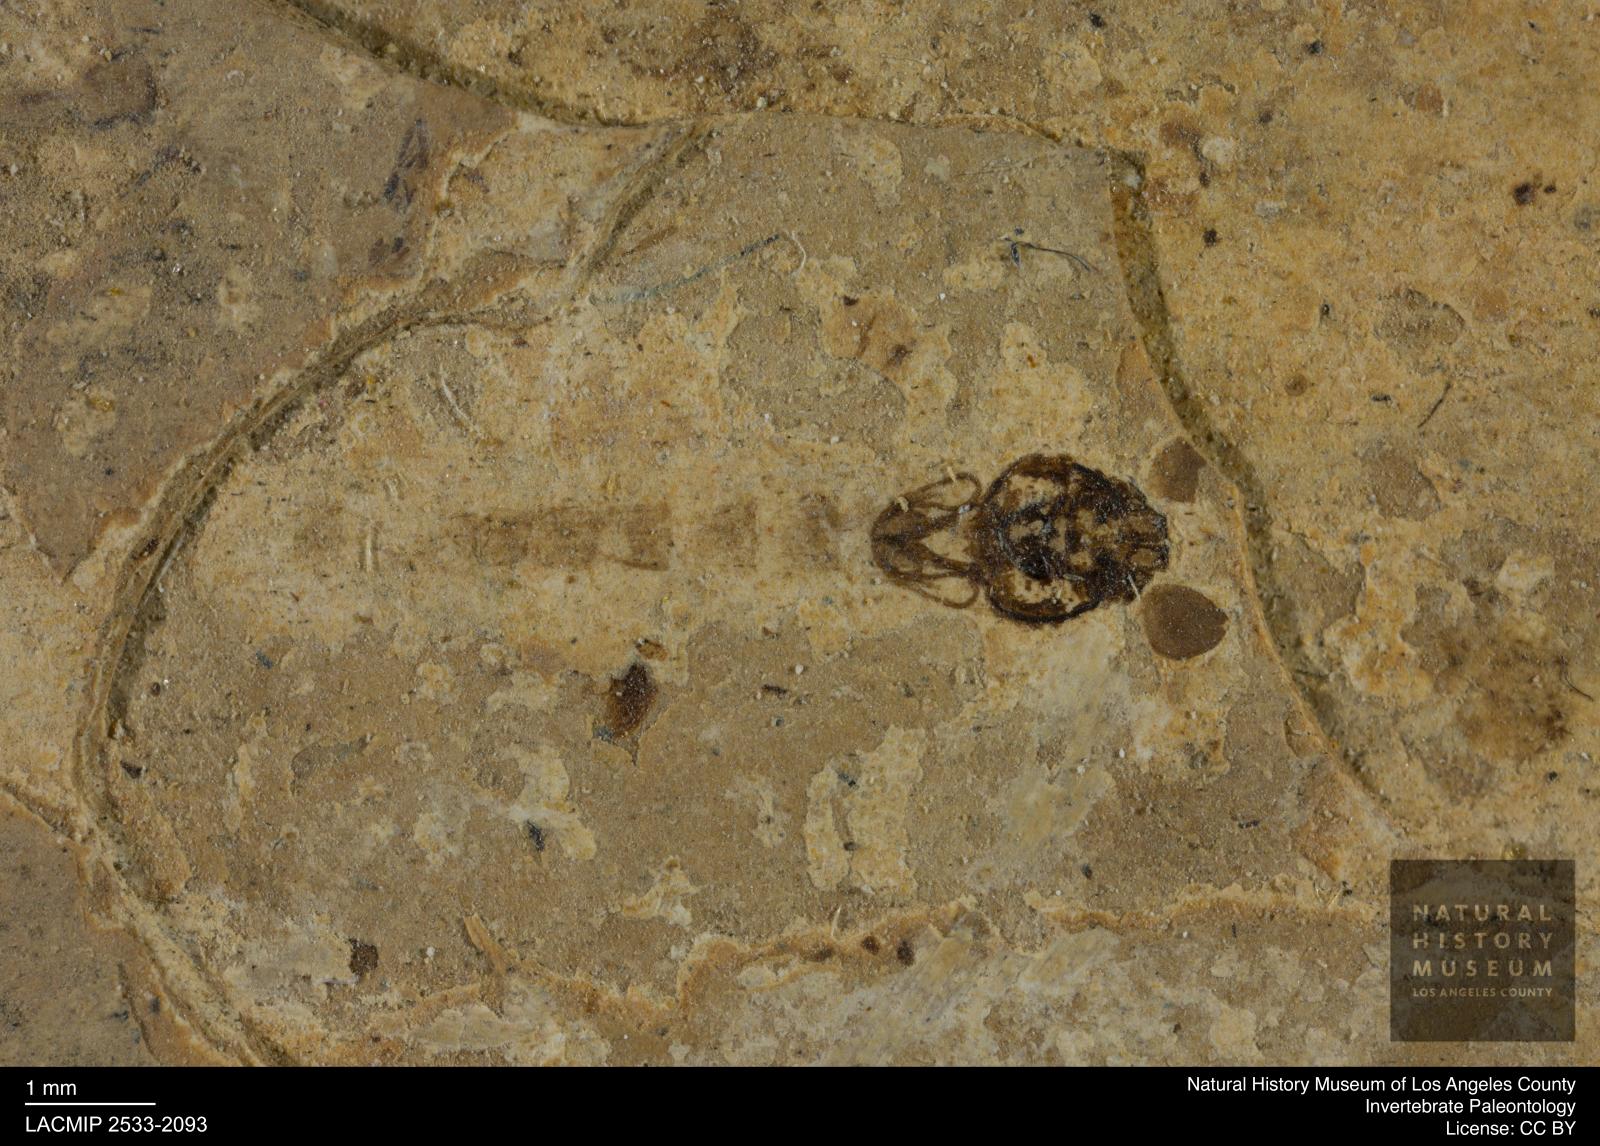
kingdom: Animalia
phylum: Arthropoda
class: Insecta
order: Diptera
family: Chironomidae
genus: Pelopiina
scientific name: Pelopiina
